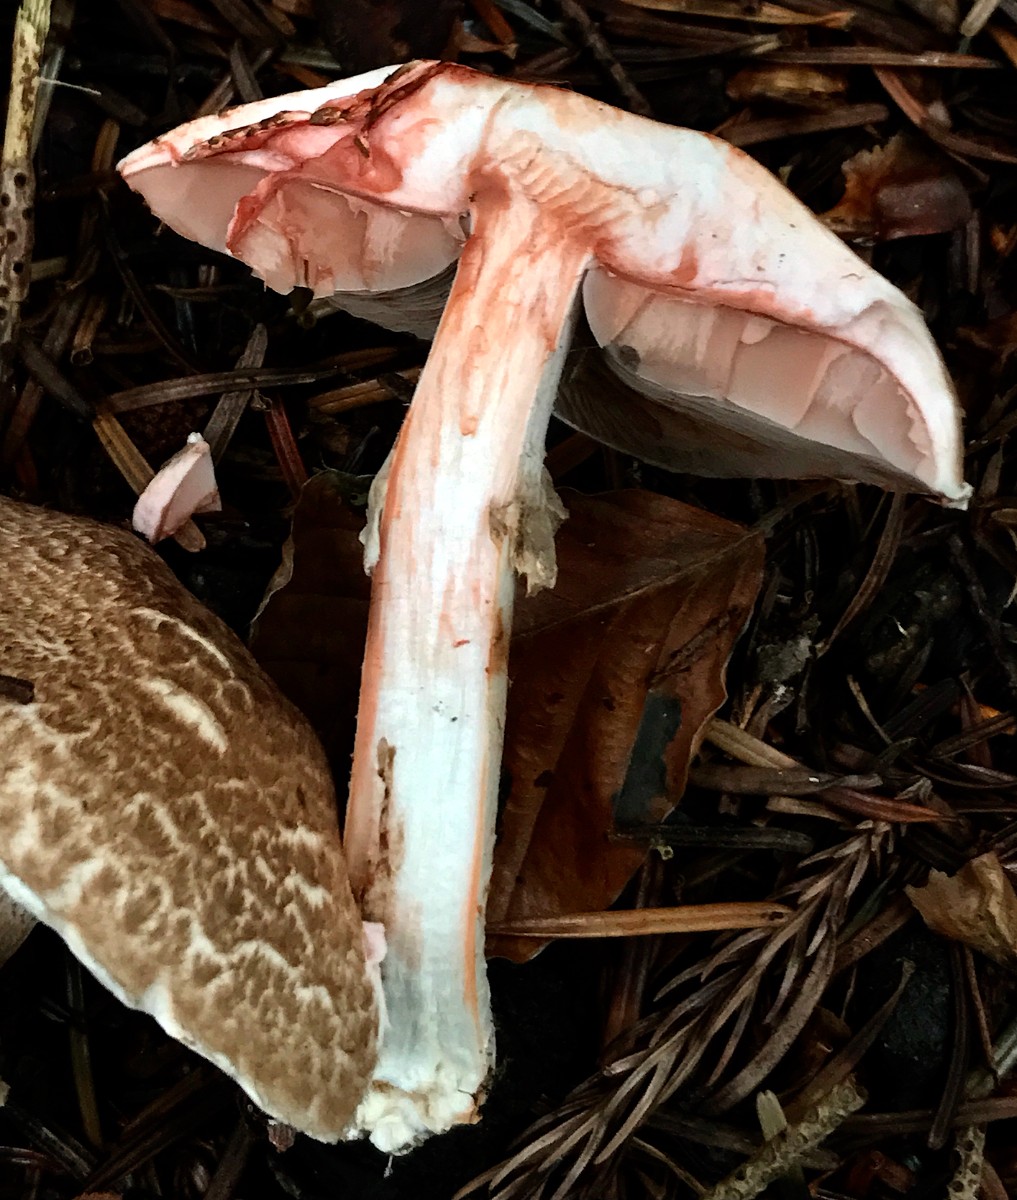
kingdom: Fungi
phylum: Basidiomycota
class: Agaricomycetes
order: Agaricales
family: Agaricaceae
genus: Agaricus
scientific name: Agaricus sylvaticus
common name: lille blod-champignon
